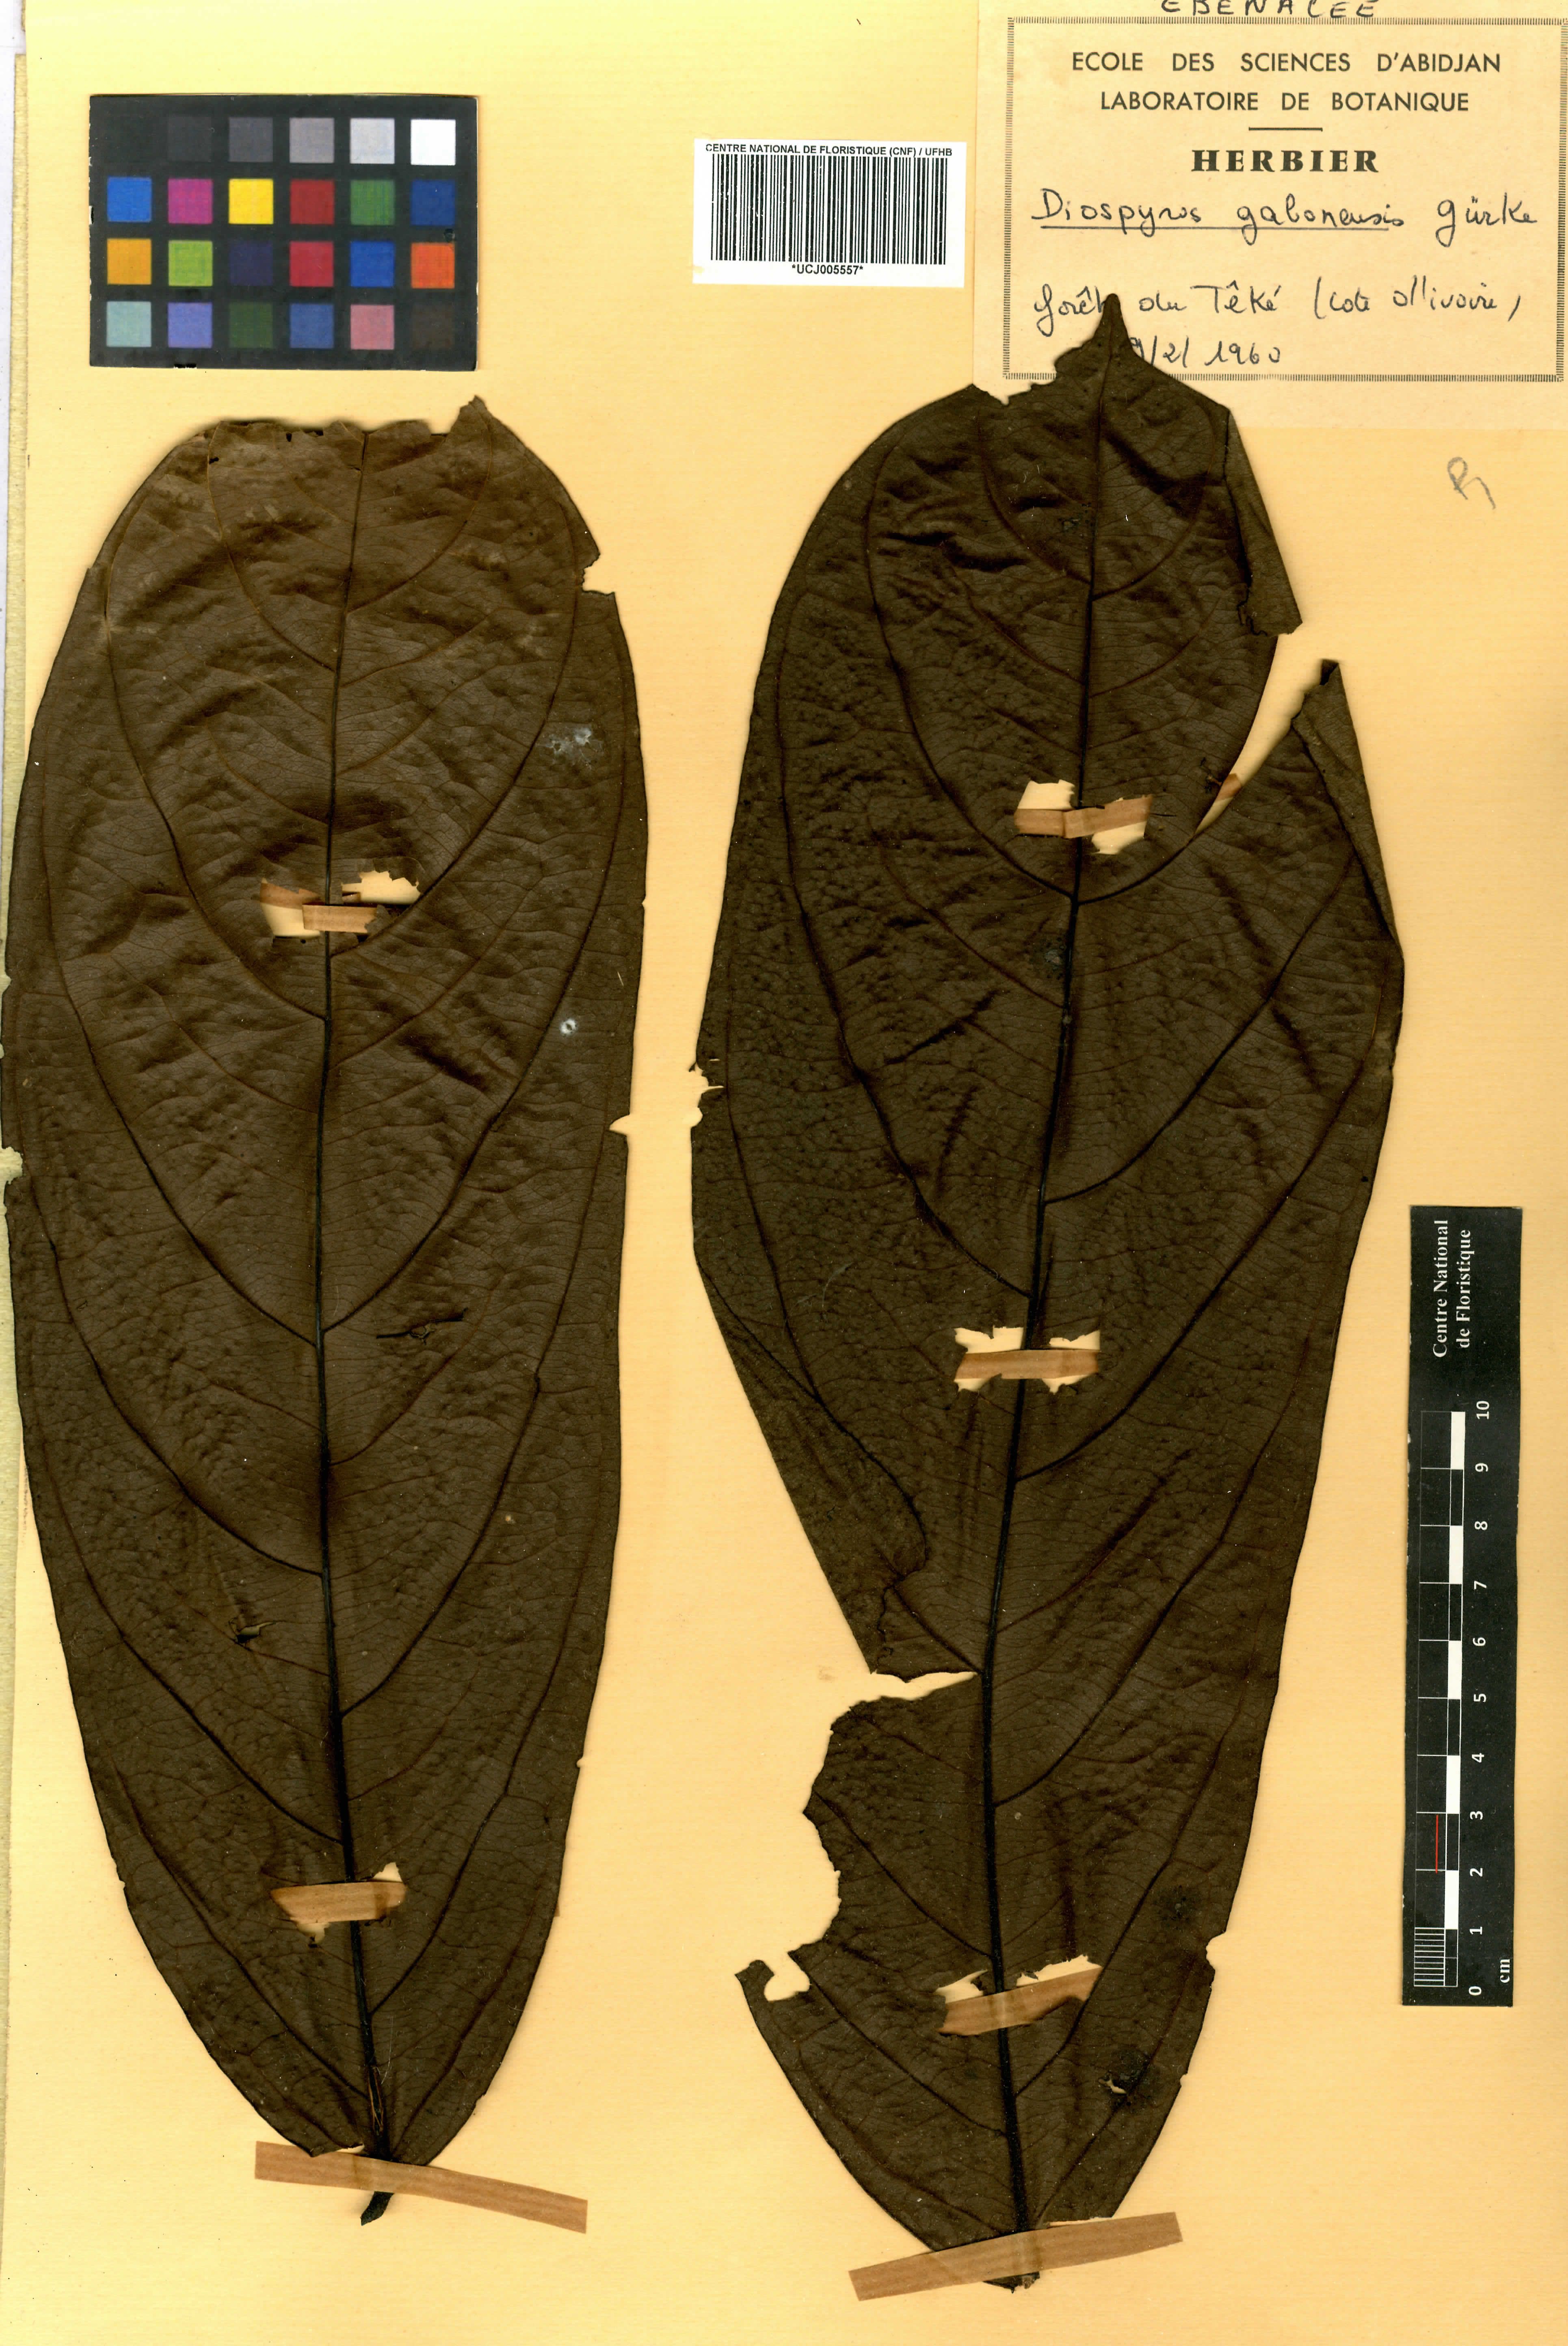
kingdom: Plantae
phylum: Tracheophyta
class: Magnoliopsida
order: Ericales
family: Ebenaceae
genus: Diospyros
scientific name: Diospyros gabunensis
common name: Flint bark tree
